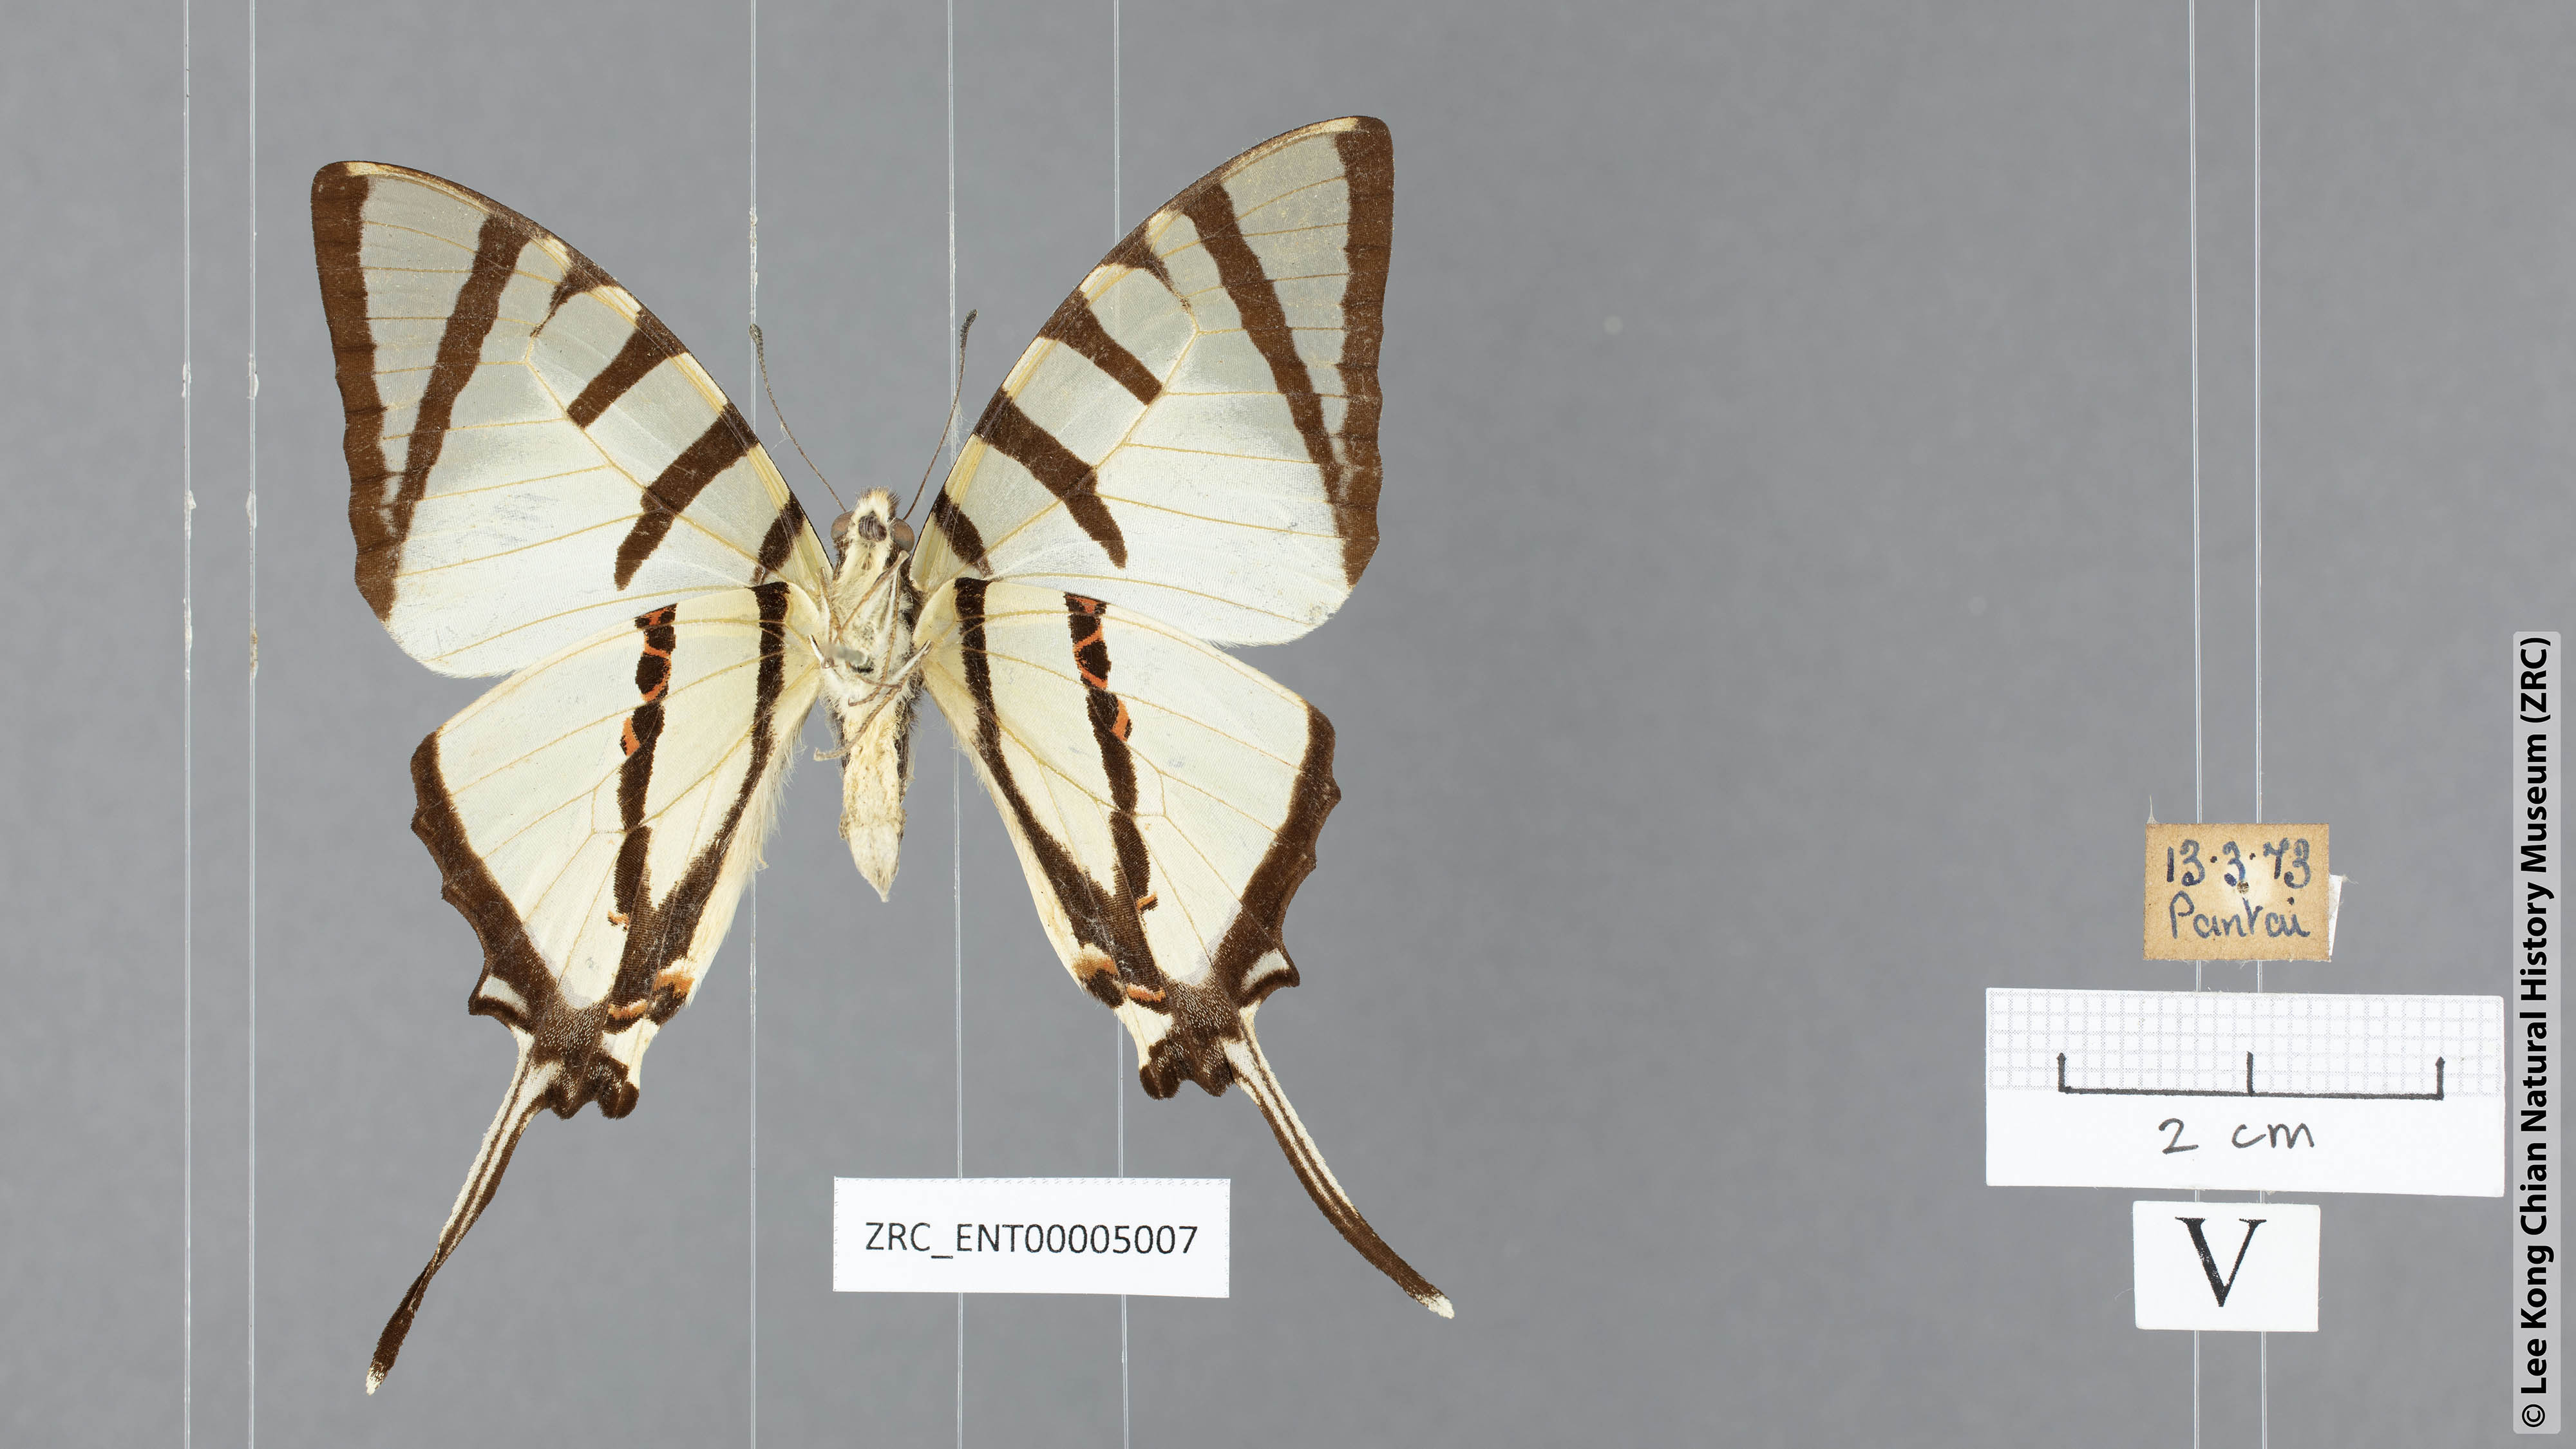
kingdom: Animalia
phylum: Arthropoda
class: Insecta
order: Lepidoptera
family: Papilionidae
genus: Graphium
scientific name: Graphium agetes
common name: Fourbar swordtail
